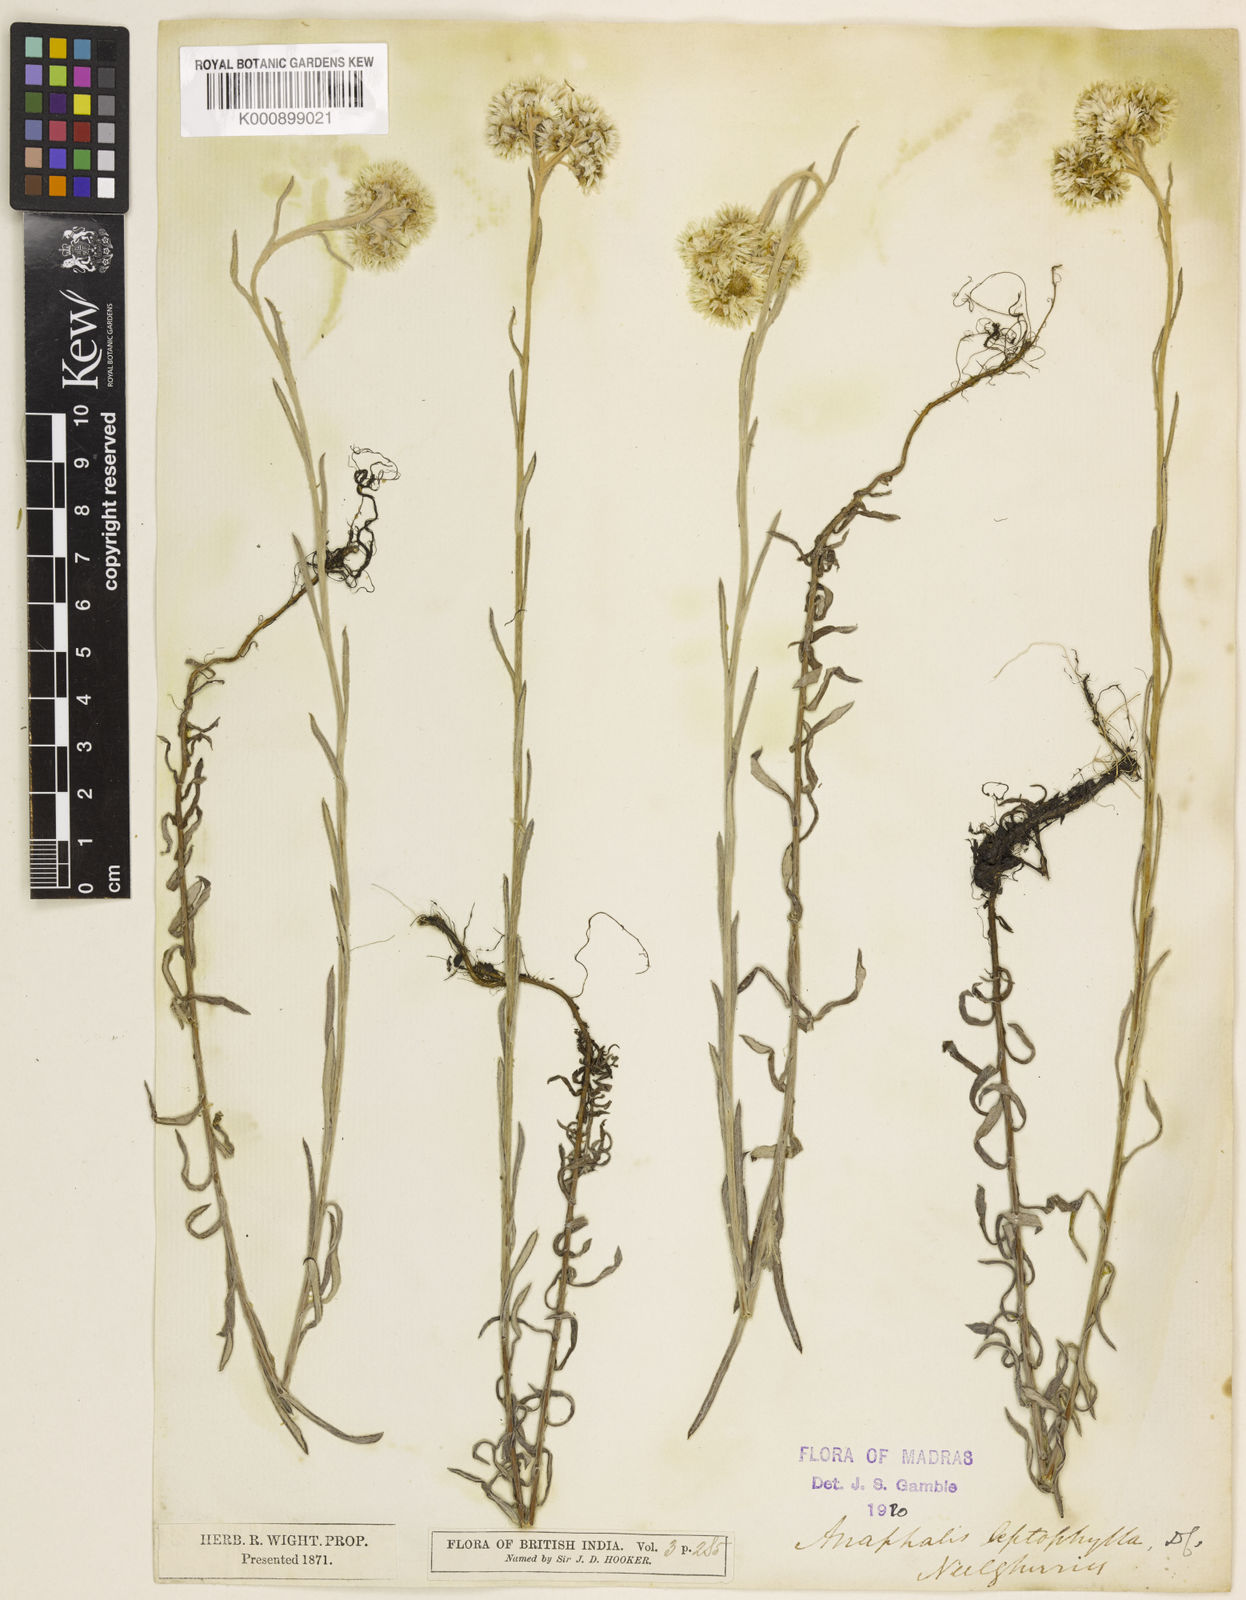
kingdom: Plantae
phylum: Tracheophyta
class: Magnoliopsida
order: Asterales
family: Asteraceae
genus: Anaphalis
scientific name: Anaphalis leptophylla
